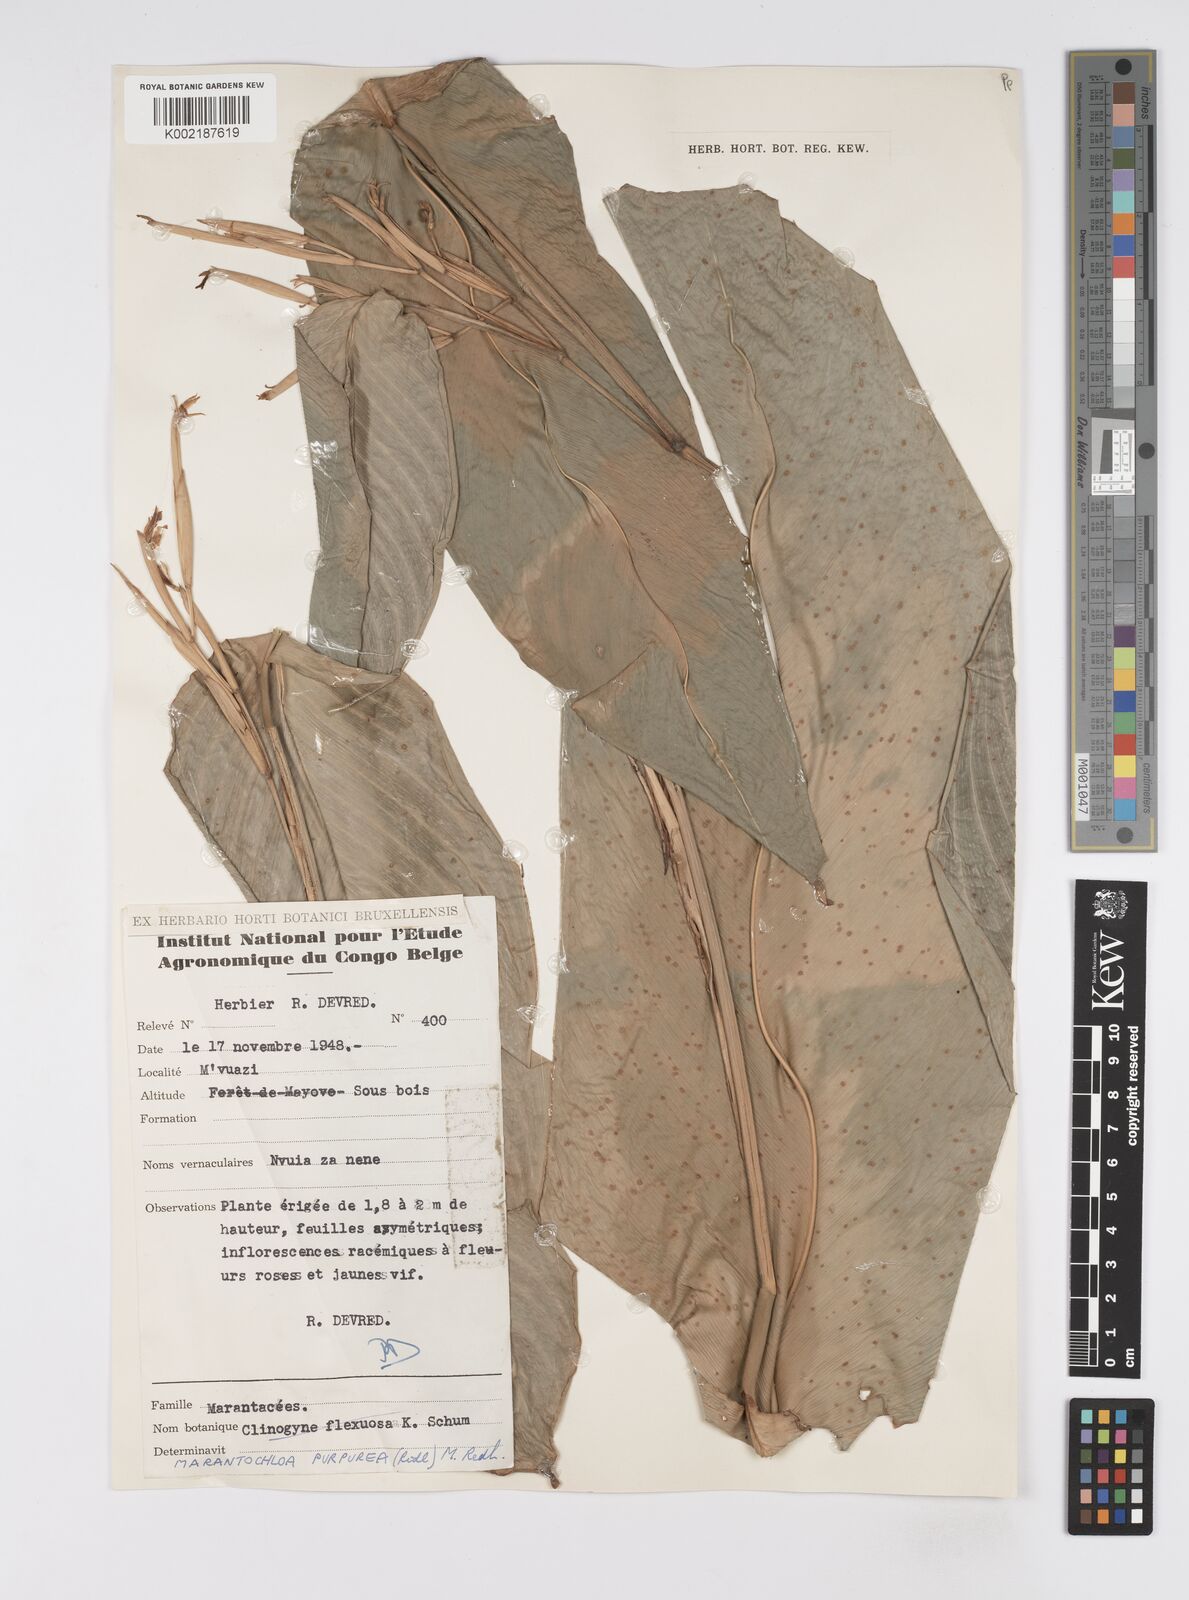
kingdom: Plantae
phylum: Tracheophyta
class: Liliopsida
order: Zingiberales
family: Marantaceae
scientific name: Marantaceae
